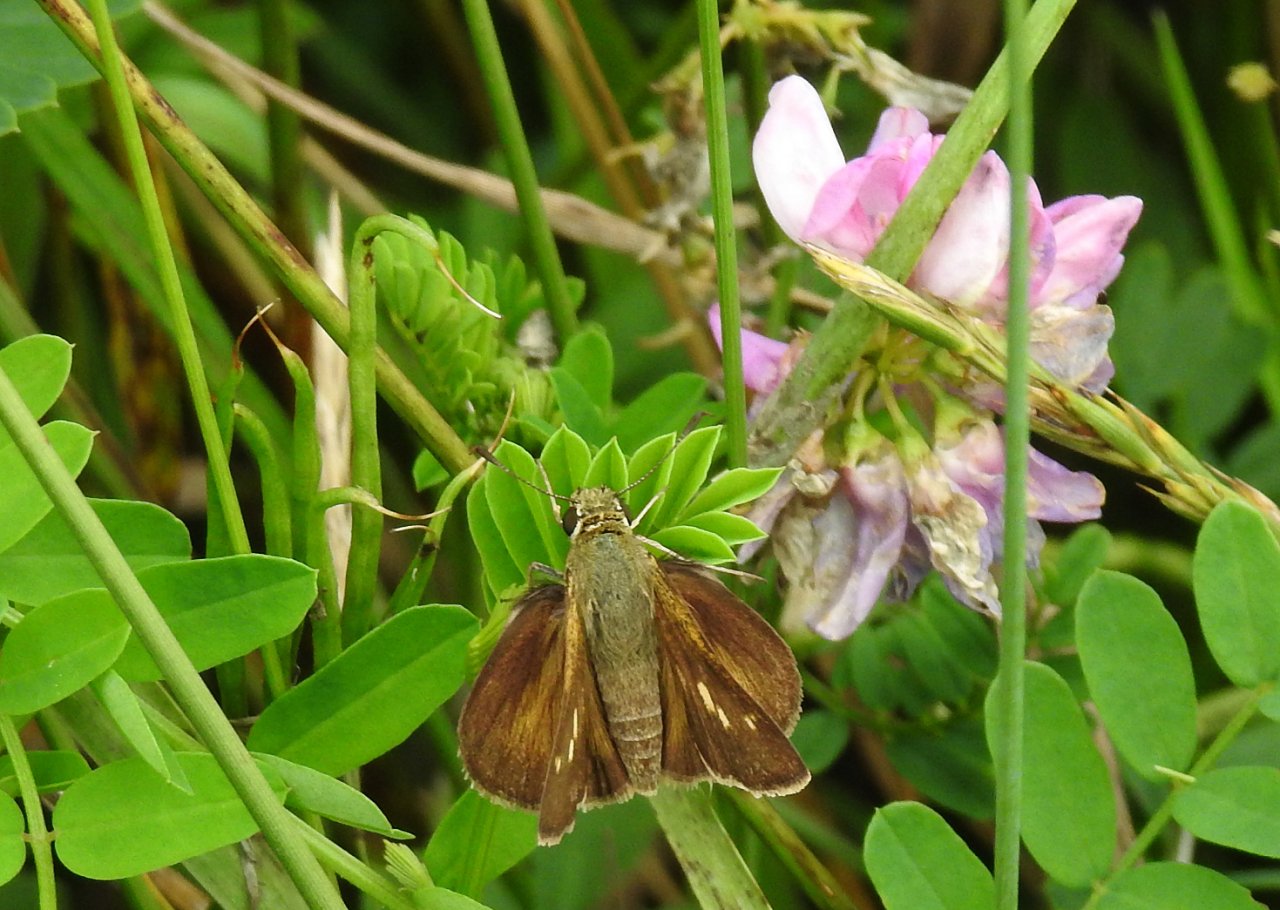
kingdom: Animalia
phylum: Arthropoda
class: Insecta
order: Lepidoptera
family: Hesperiidae
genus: Euphyes
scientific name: Euphyes vestris
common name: Dun Skipper
